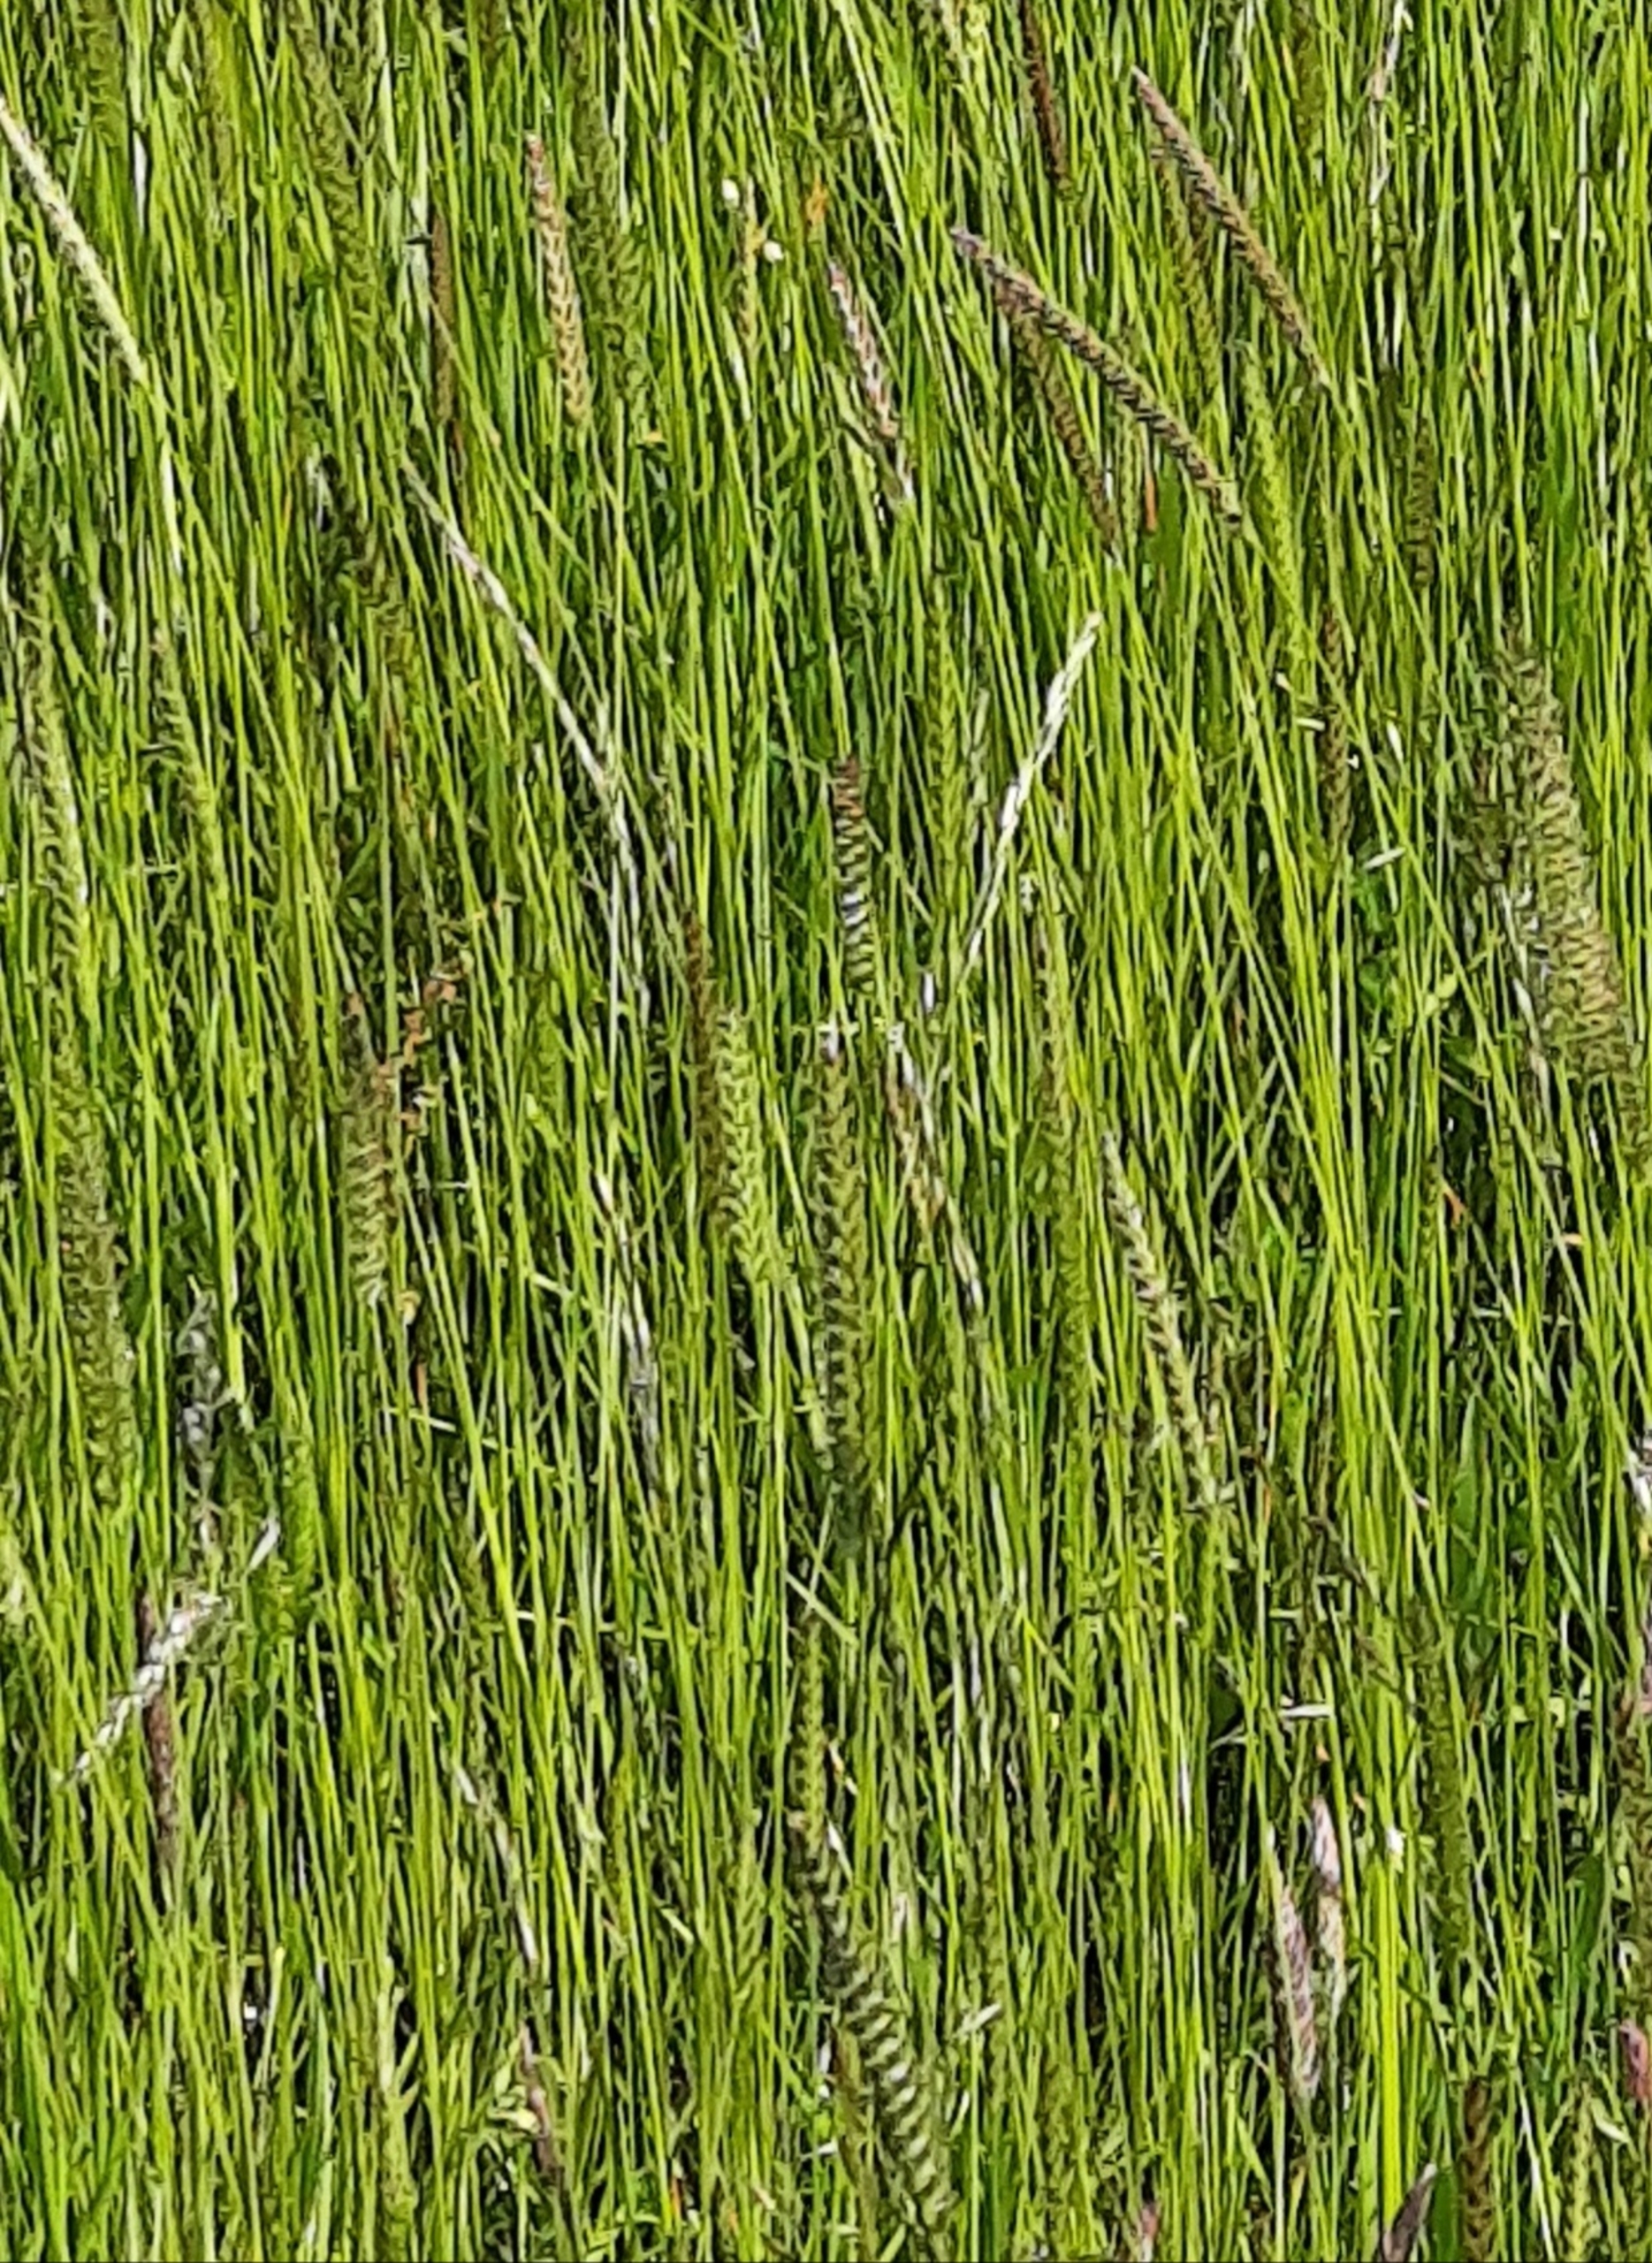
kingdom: Plantae
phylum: Tracheophyta
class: Liliopsida
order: Poales
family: Poaceae
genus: Cynosurus
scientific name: Cynosurus cristatus
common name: Kamgræs
